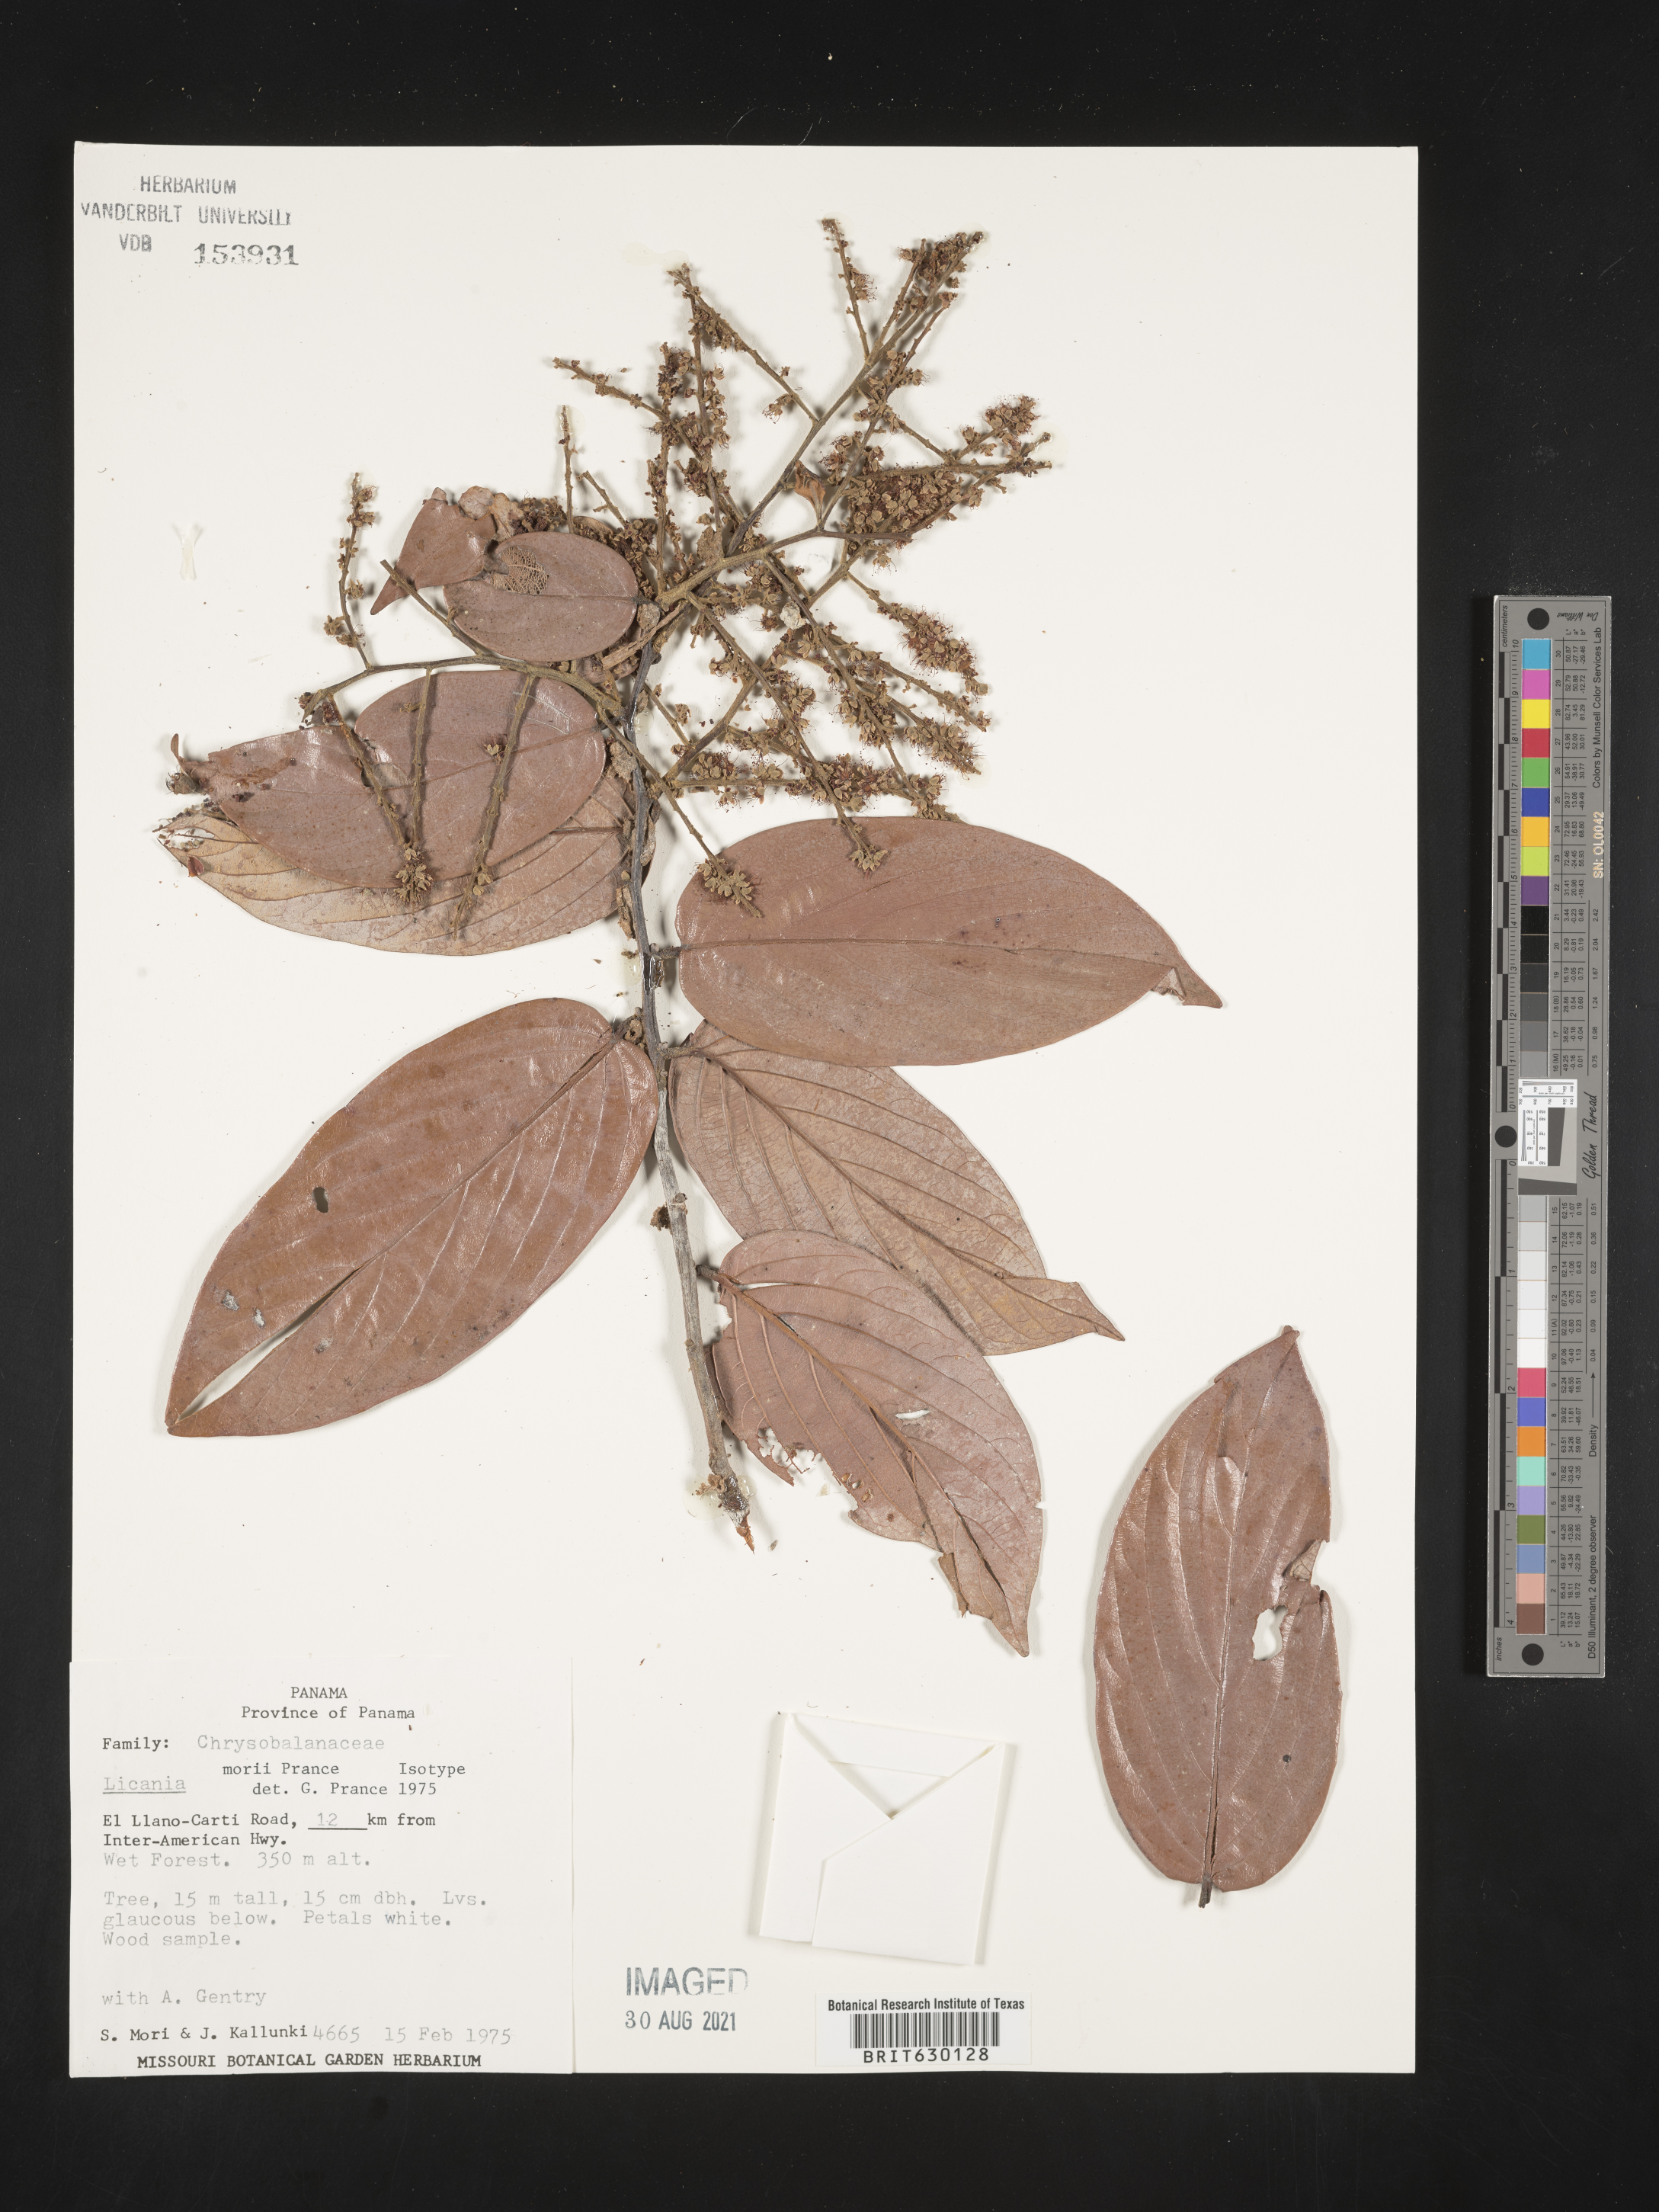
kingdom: Plantae
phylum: Tracheophyta
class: Magnoliopsida
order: Malpighiales
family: Chrysobalanaceae
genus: Leptobalanus
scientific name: Leptobalanus morii
